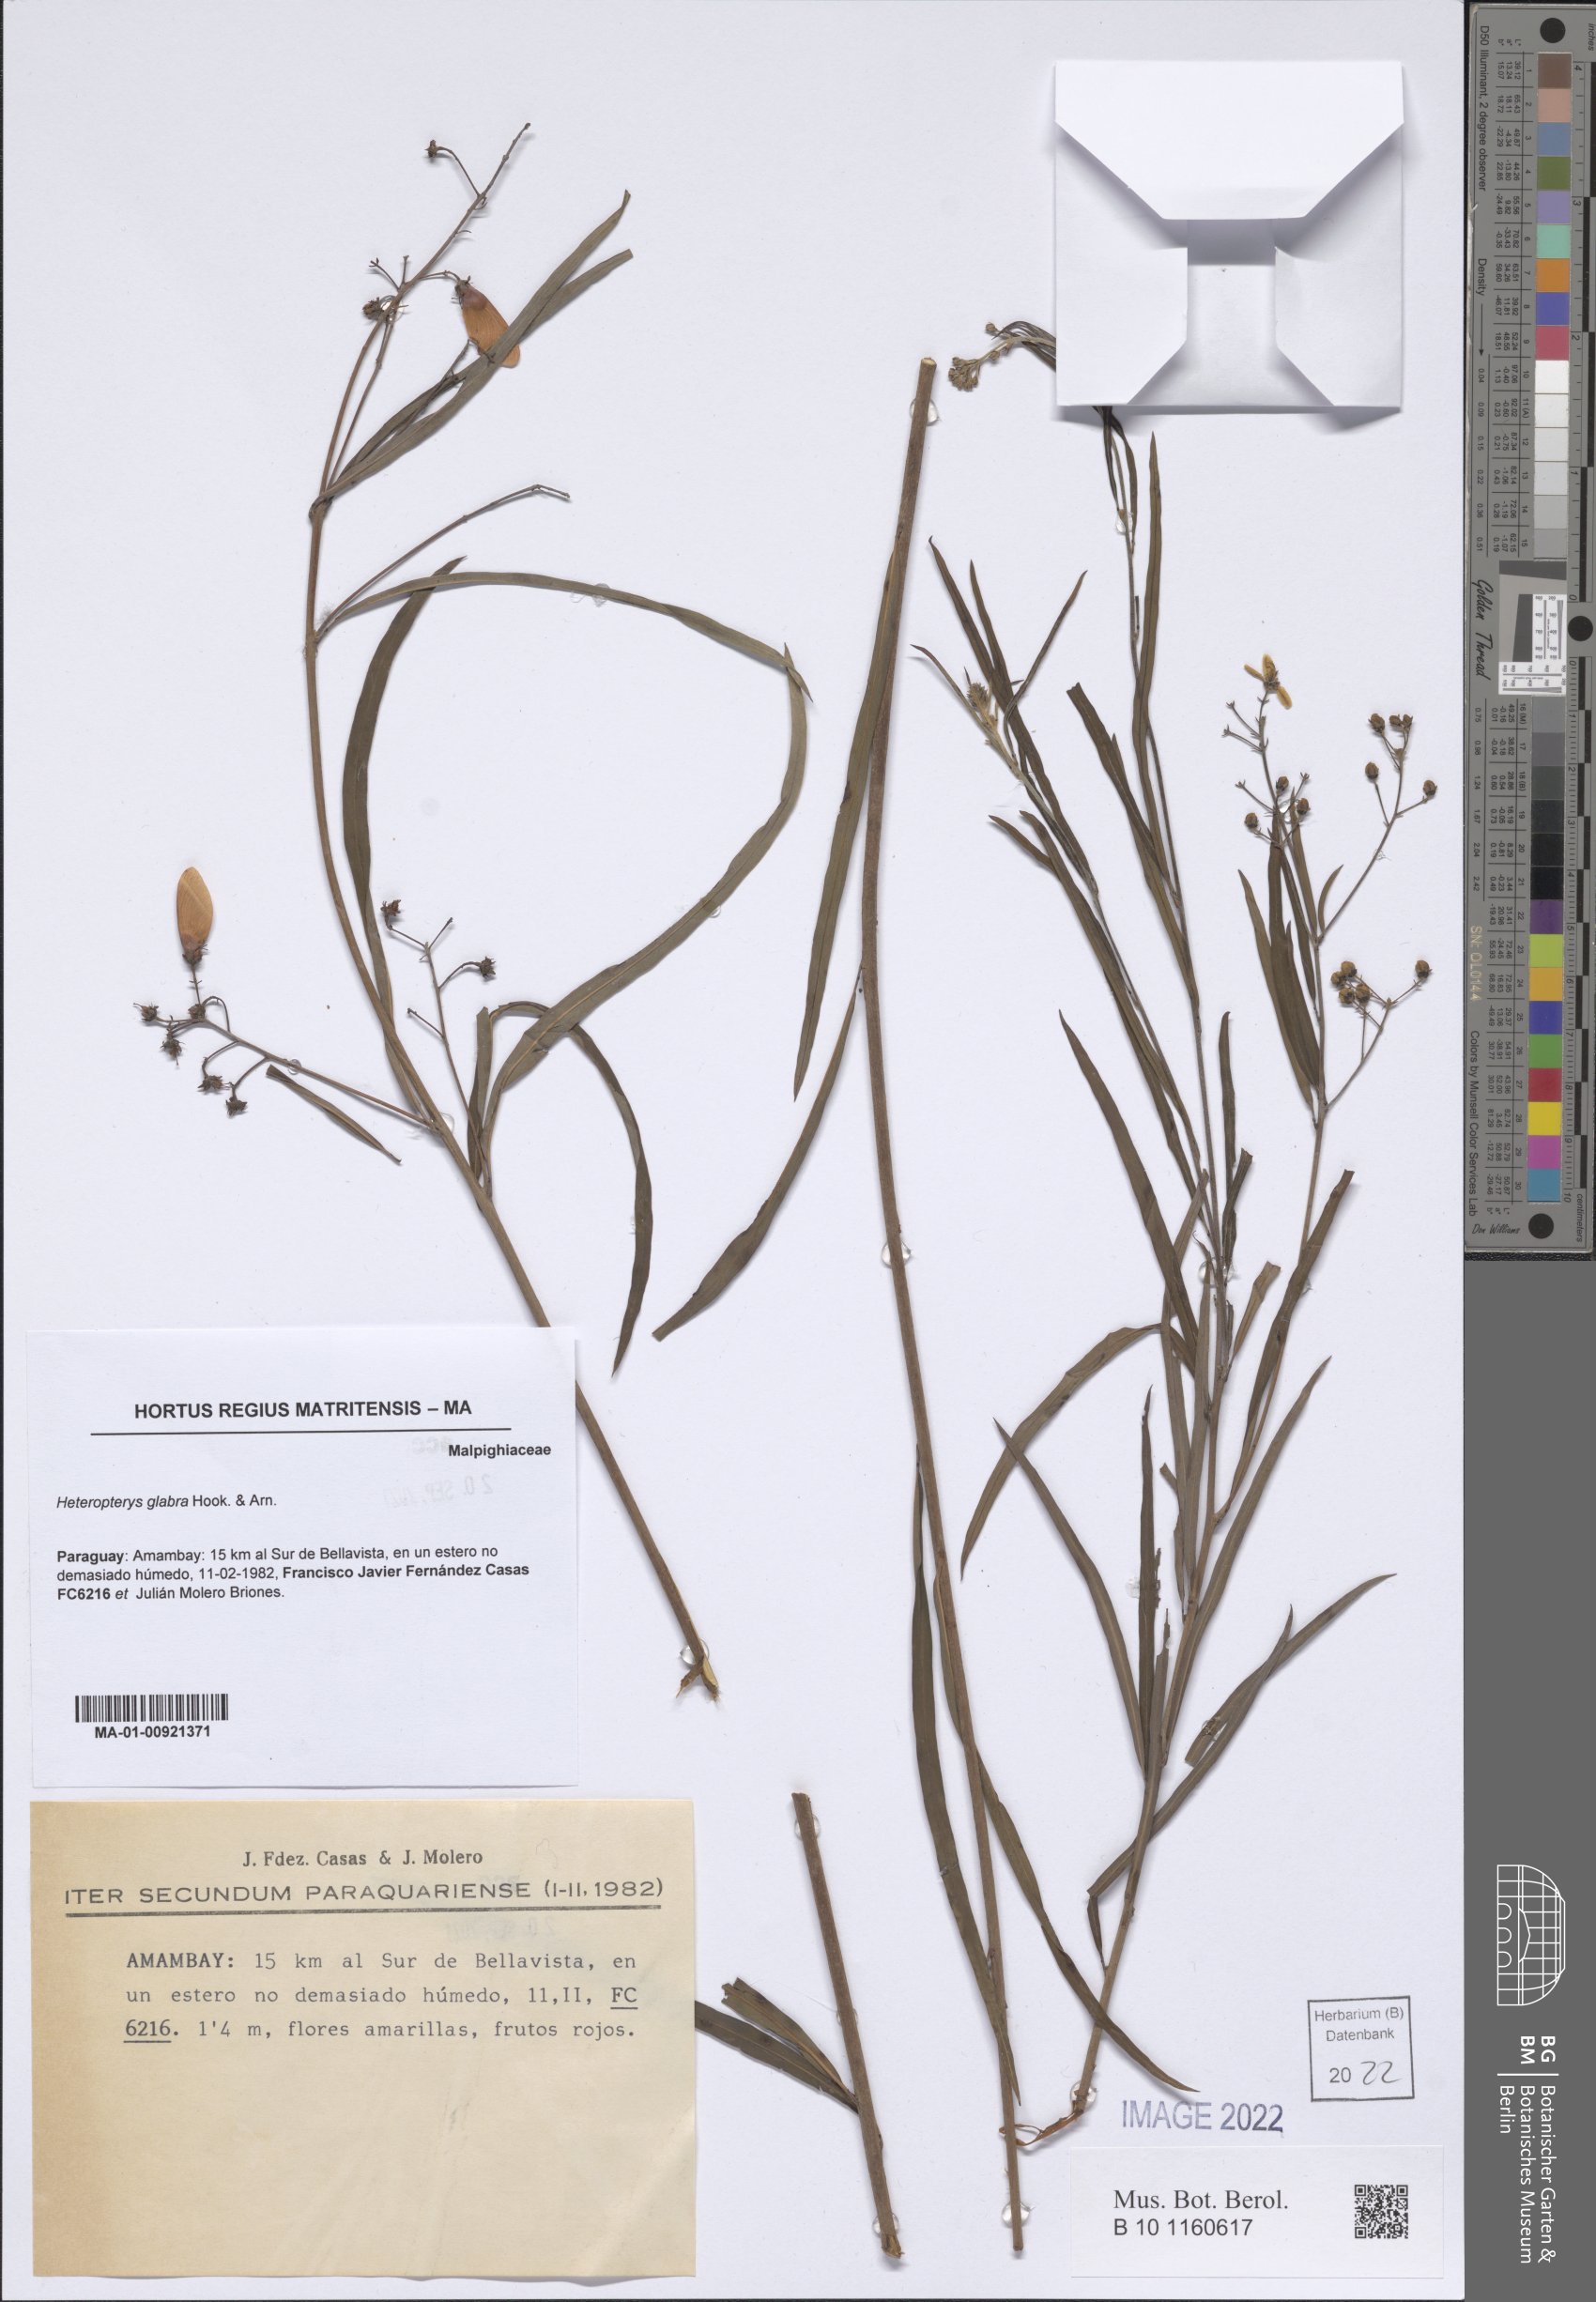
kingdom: Plantae
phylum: Tracheophyta
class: Magnoliopsida
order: Malpighiales
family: Malpighiaceae
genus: Heteropterys
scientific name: Heteropterys glabra
